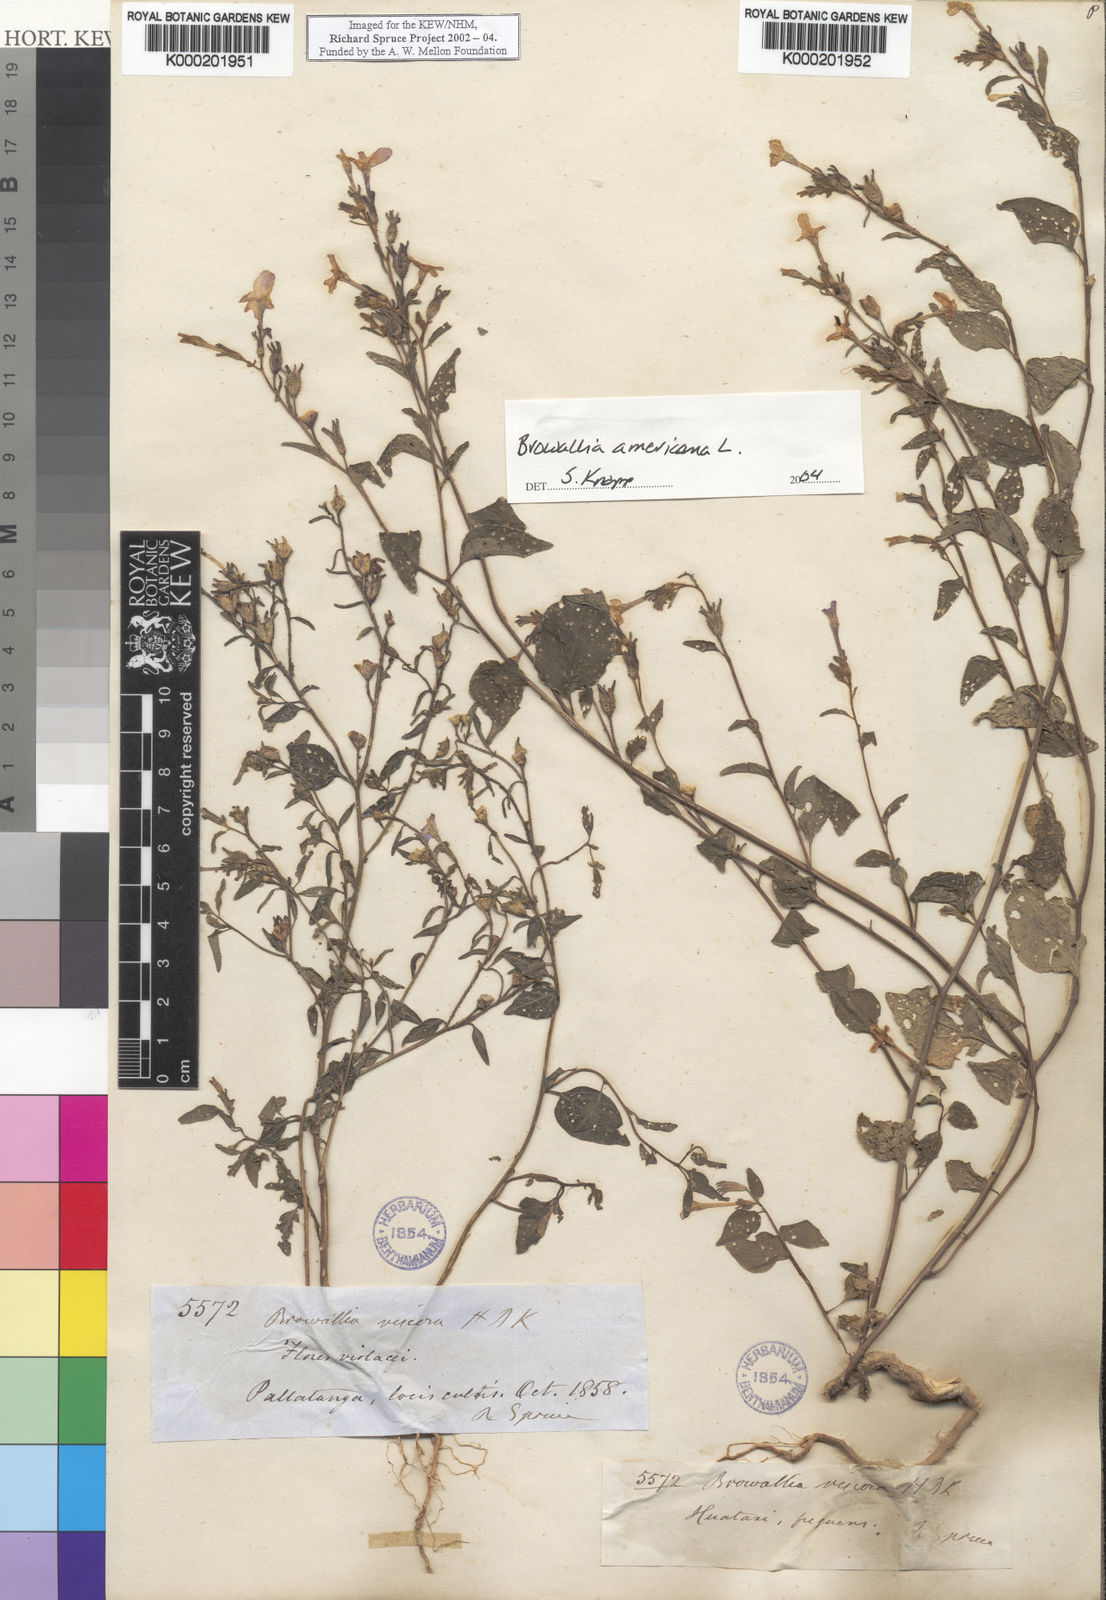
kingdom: Plantae
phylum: Tracheophyta
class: Magnoliopsida
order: Solanales
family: Solanaceae
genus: Browallia
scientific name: Browallia americana
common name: Jamaican forget-me-not
